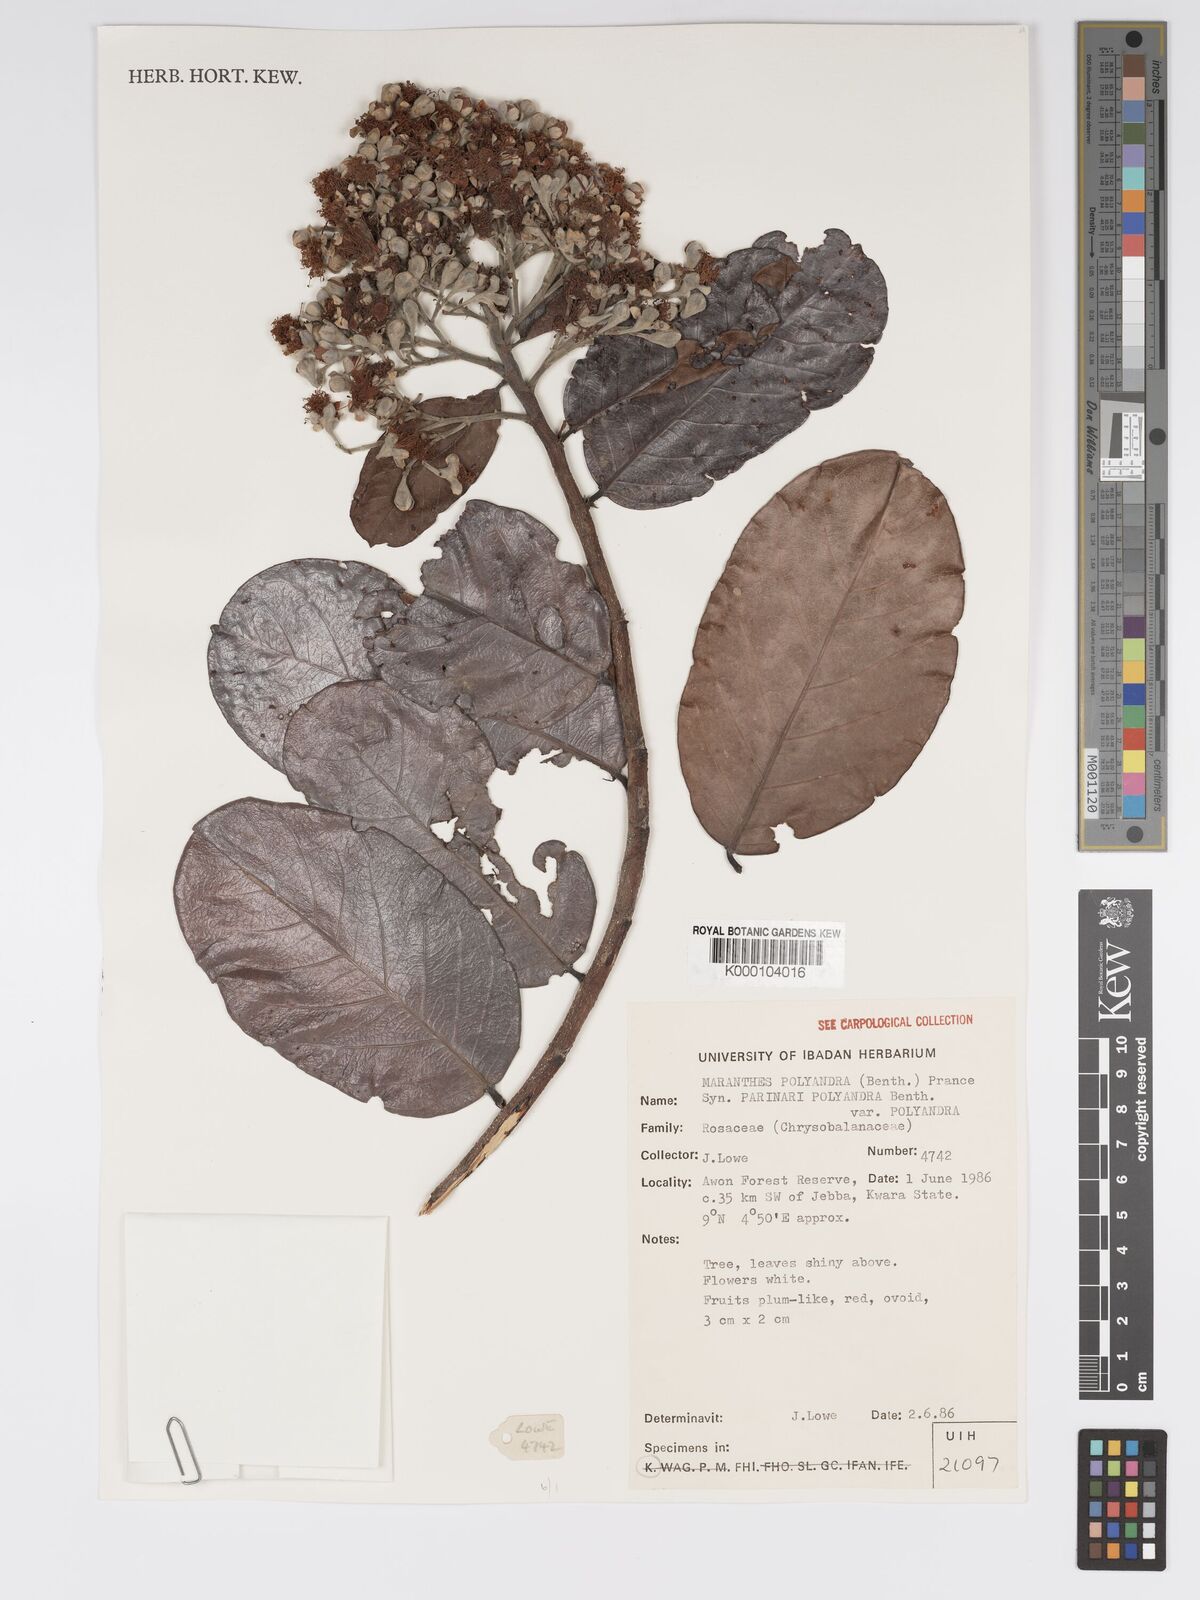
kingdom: Plantae
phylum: Tracheophyta
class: Magnoliopsida
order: Malpighiales
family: Chrysobalanaceae
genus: Maranthes
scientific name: Maranthes polyandra
